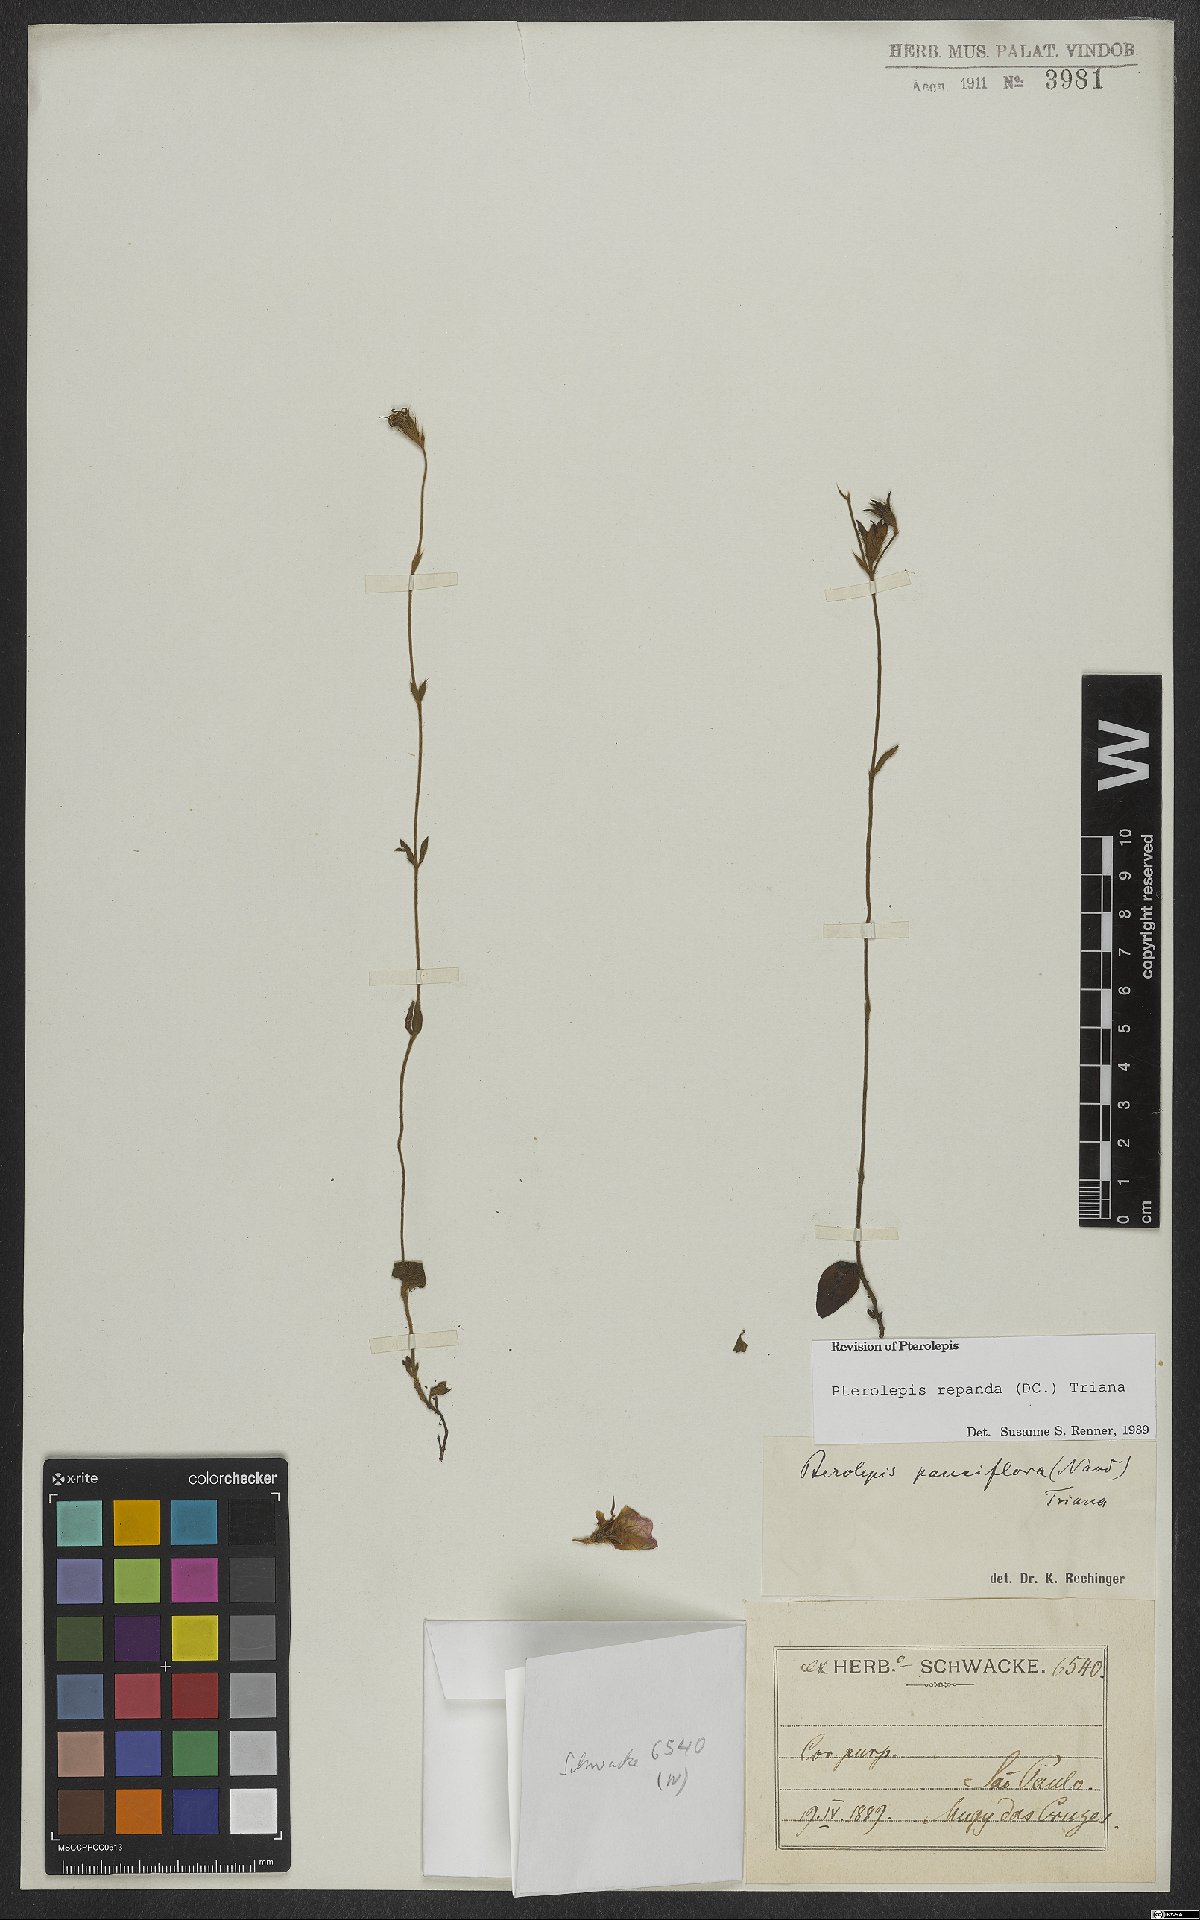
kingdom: Plantae
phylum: Tracheophyta
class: Magnoliopsida
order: Myrtales
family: Melastomataceae
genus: Pterolepis
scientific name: Pterolepis repanda
